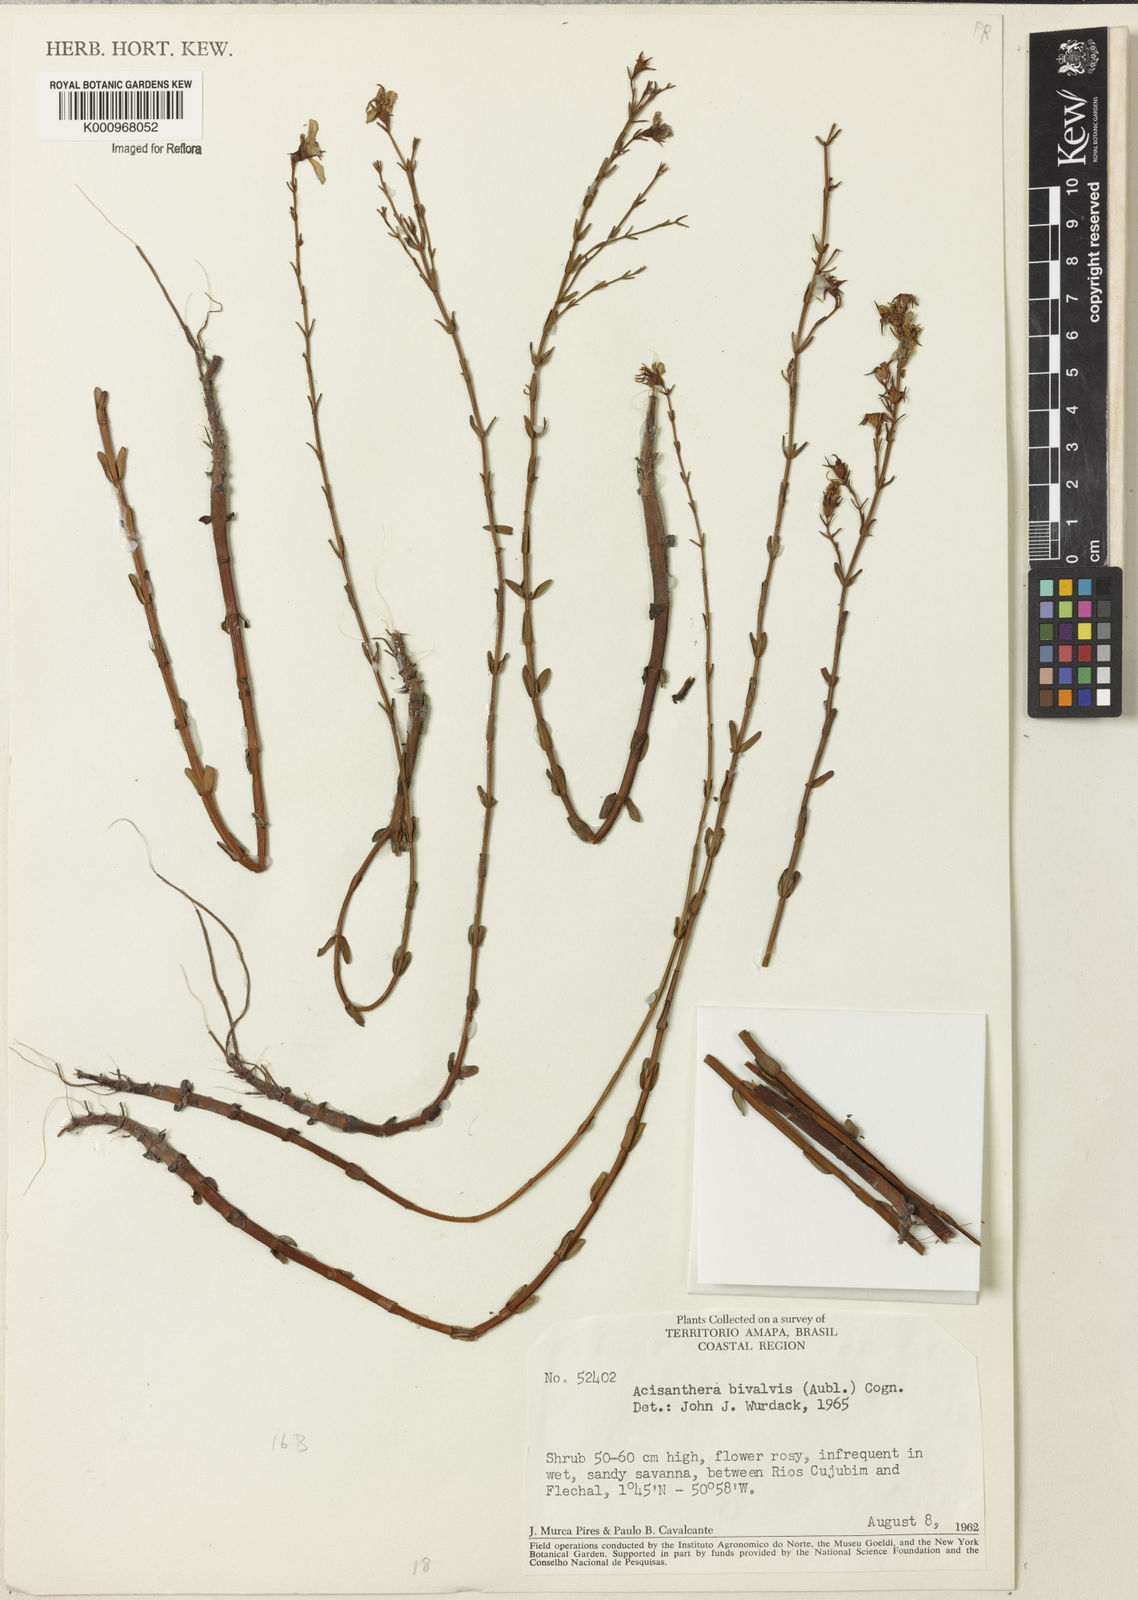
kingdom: Plantae
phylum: Tracheophyta
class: Magnoliopsida
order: Myrtales
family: Melastomataceae
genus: Noterophila
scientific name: Noterophila bivalvis
